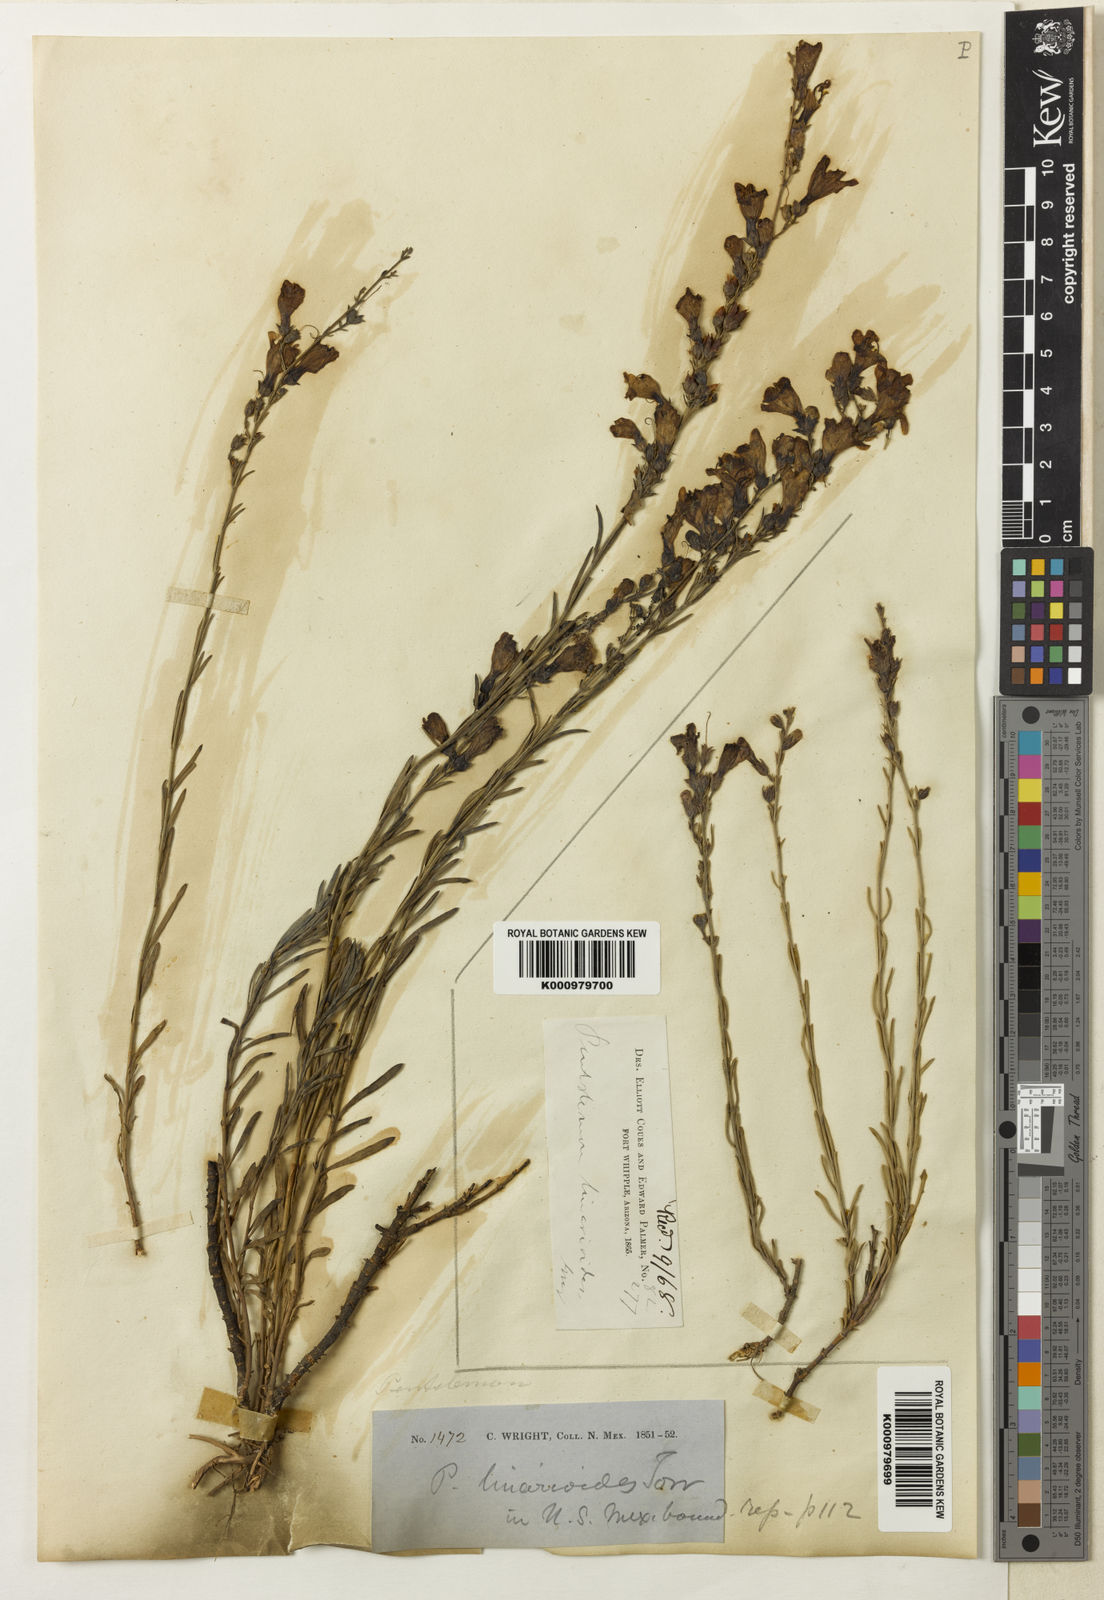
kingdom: Plantae
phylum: Tracheophyta
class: Magnoliopsida
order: Lamiales
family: Plantaginaceae
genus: Penstemon
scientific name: Penstemon linarioides
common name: Siler's penstemon
